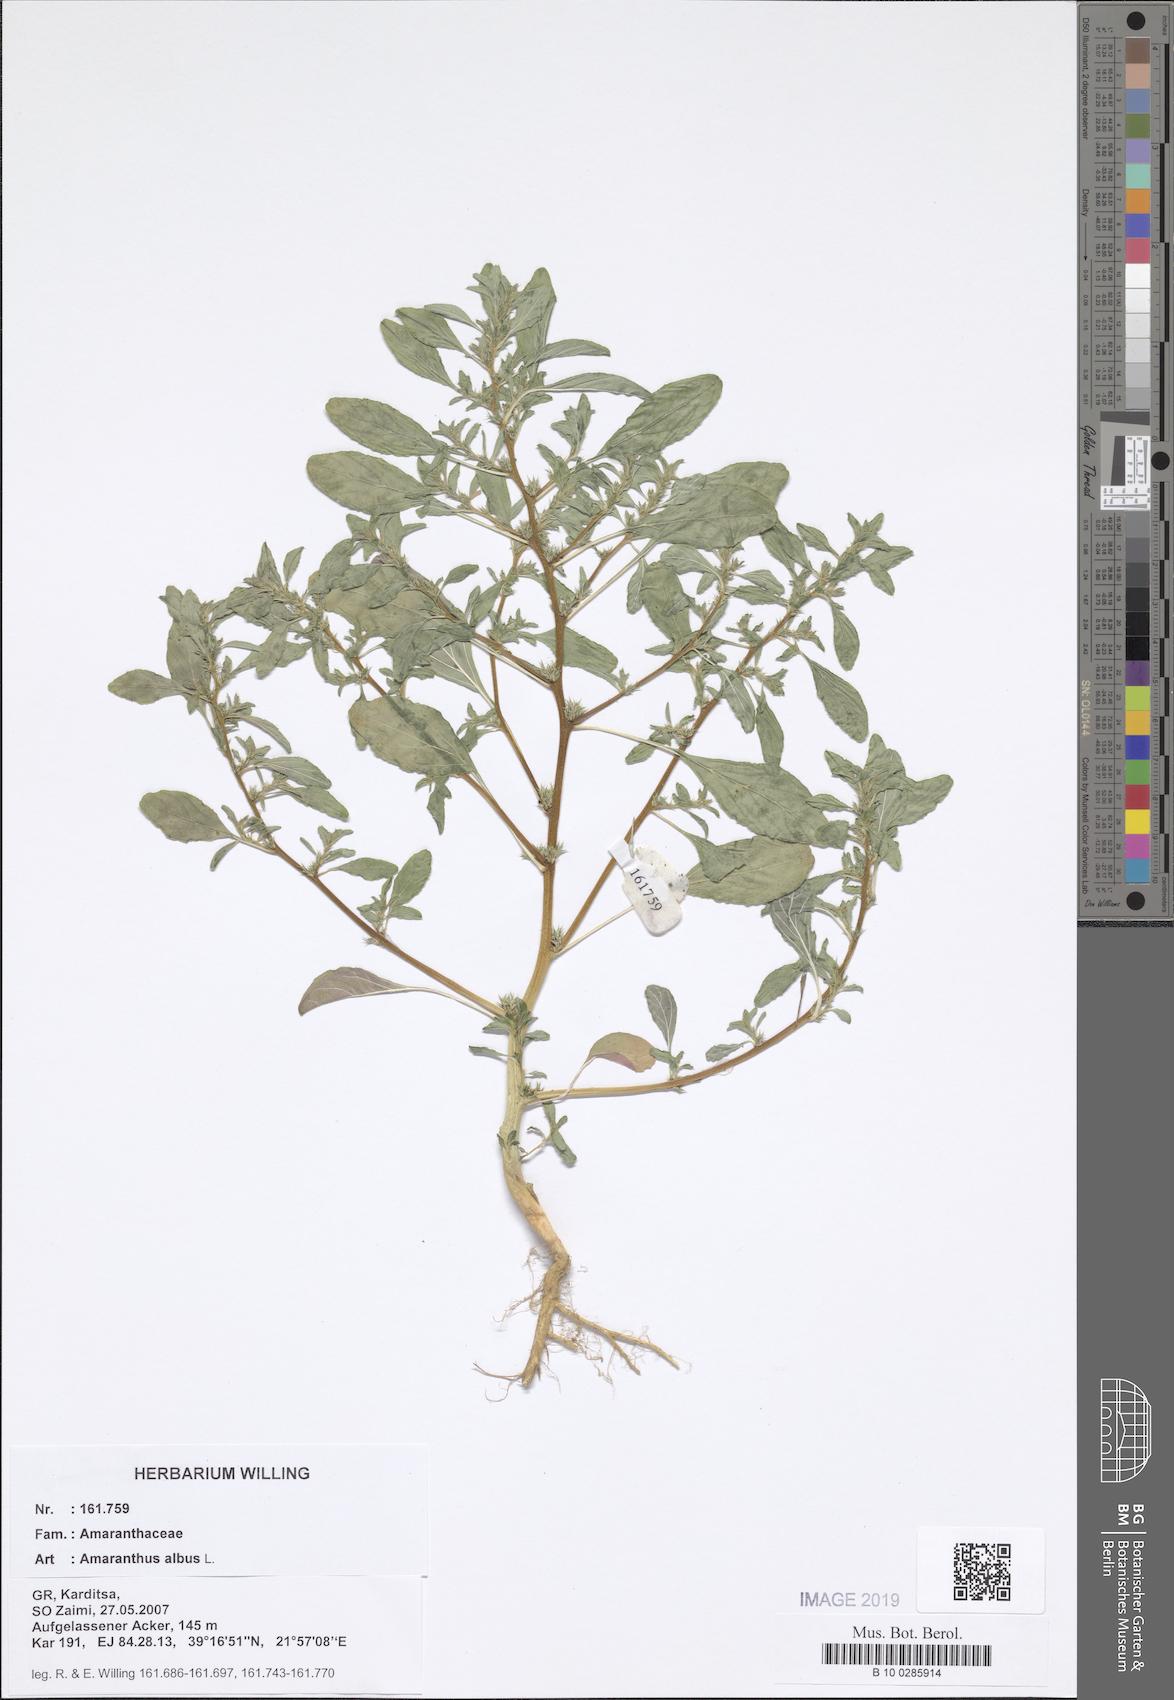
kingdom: Plantae
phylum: Tracheophyta
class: Magnoliopsida
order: Caryophyllales
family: Amaranthaceae
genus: Amaranthus
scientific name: Amaranthus albus
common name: White pigweed
